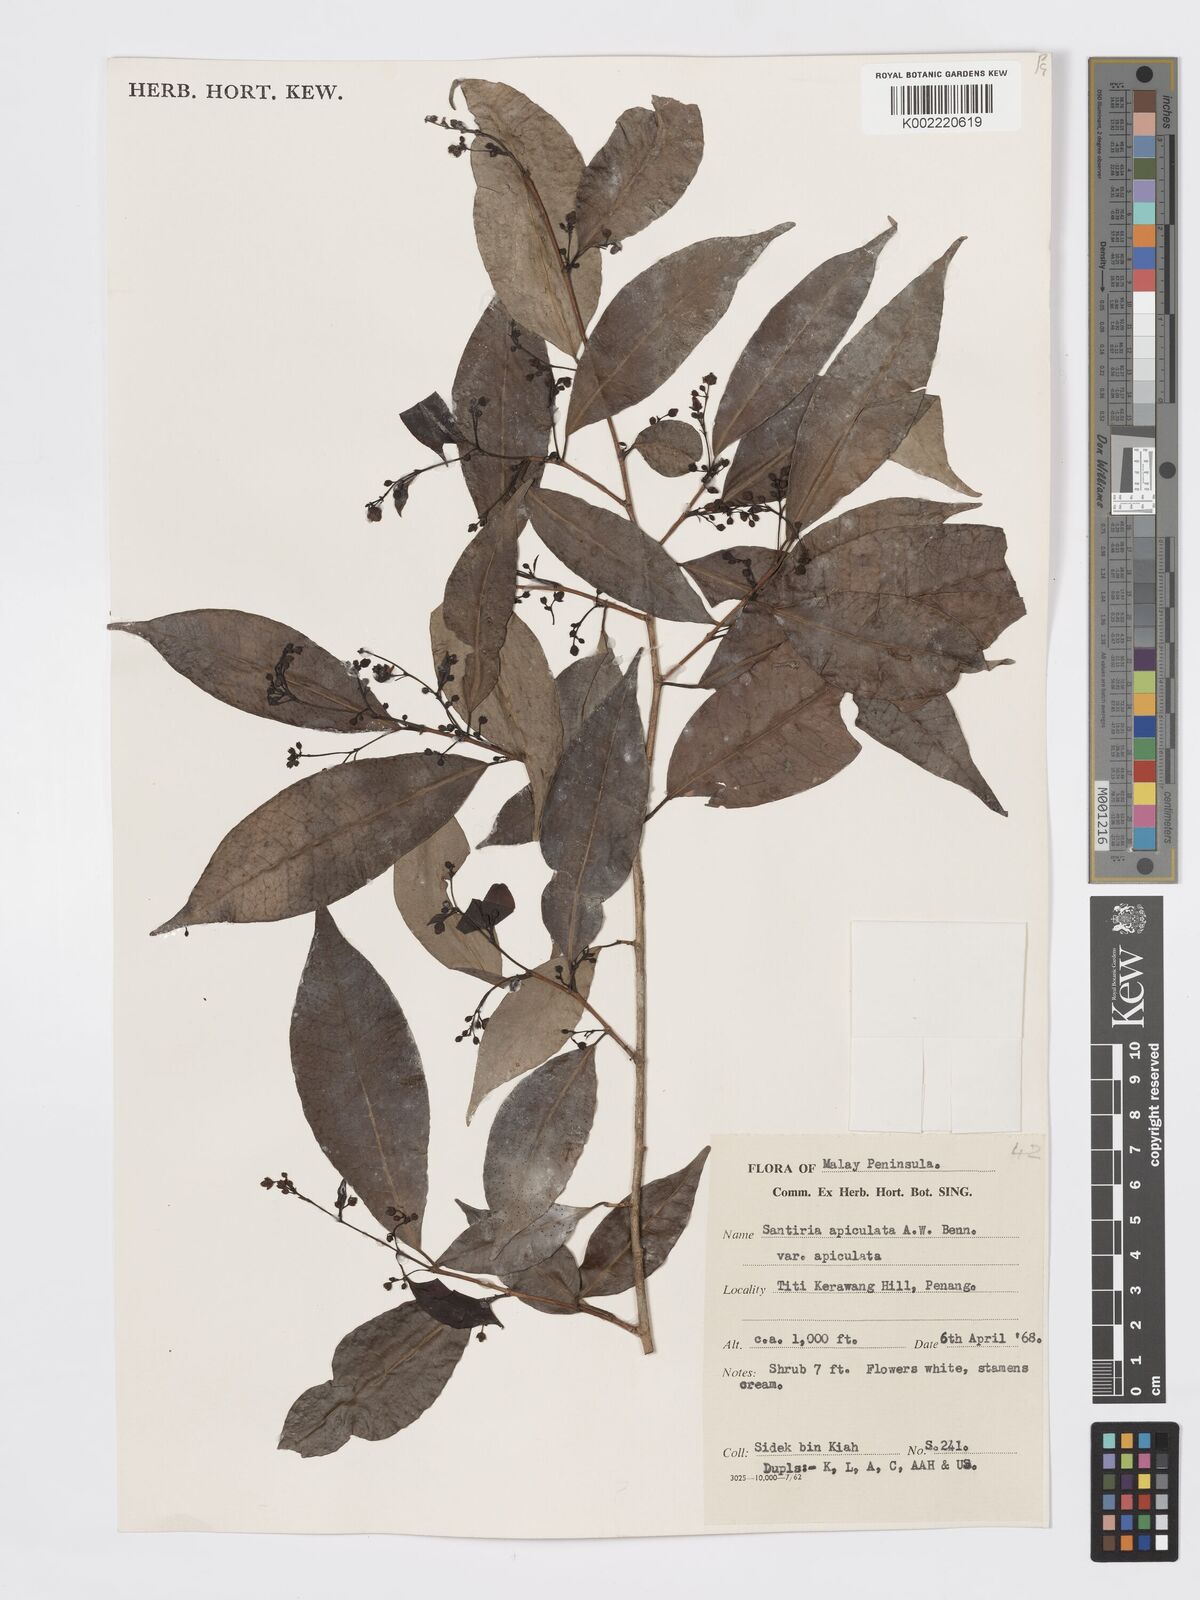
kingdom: Plantae
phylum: Tracheophyta
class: Magnoliopsida
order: Sapindales
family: Burseraceae
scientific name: Burseraceae
